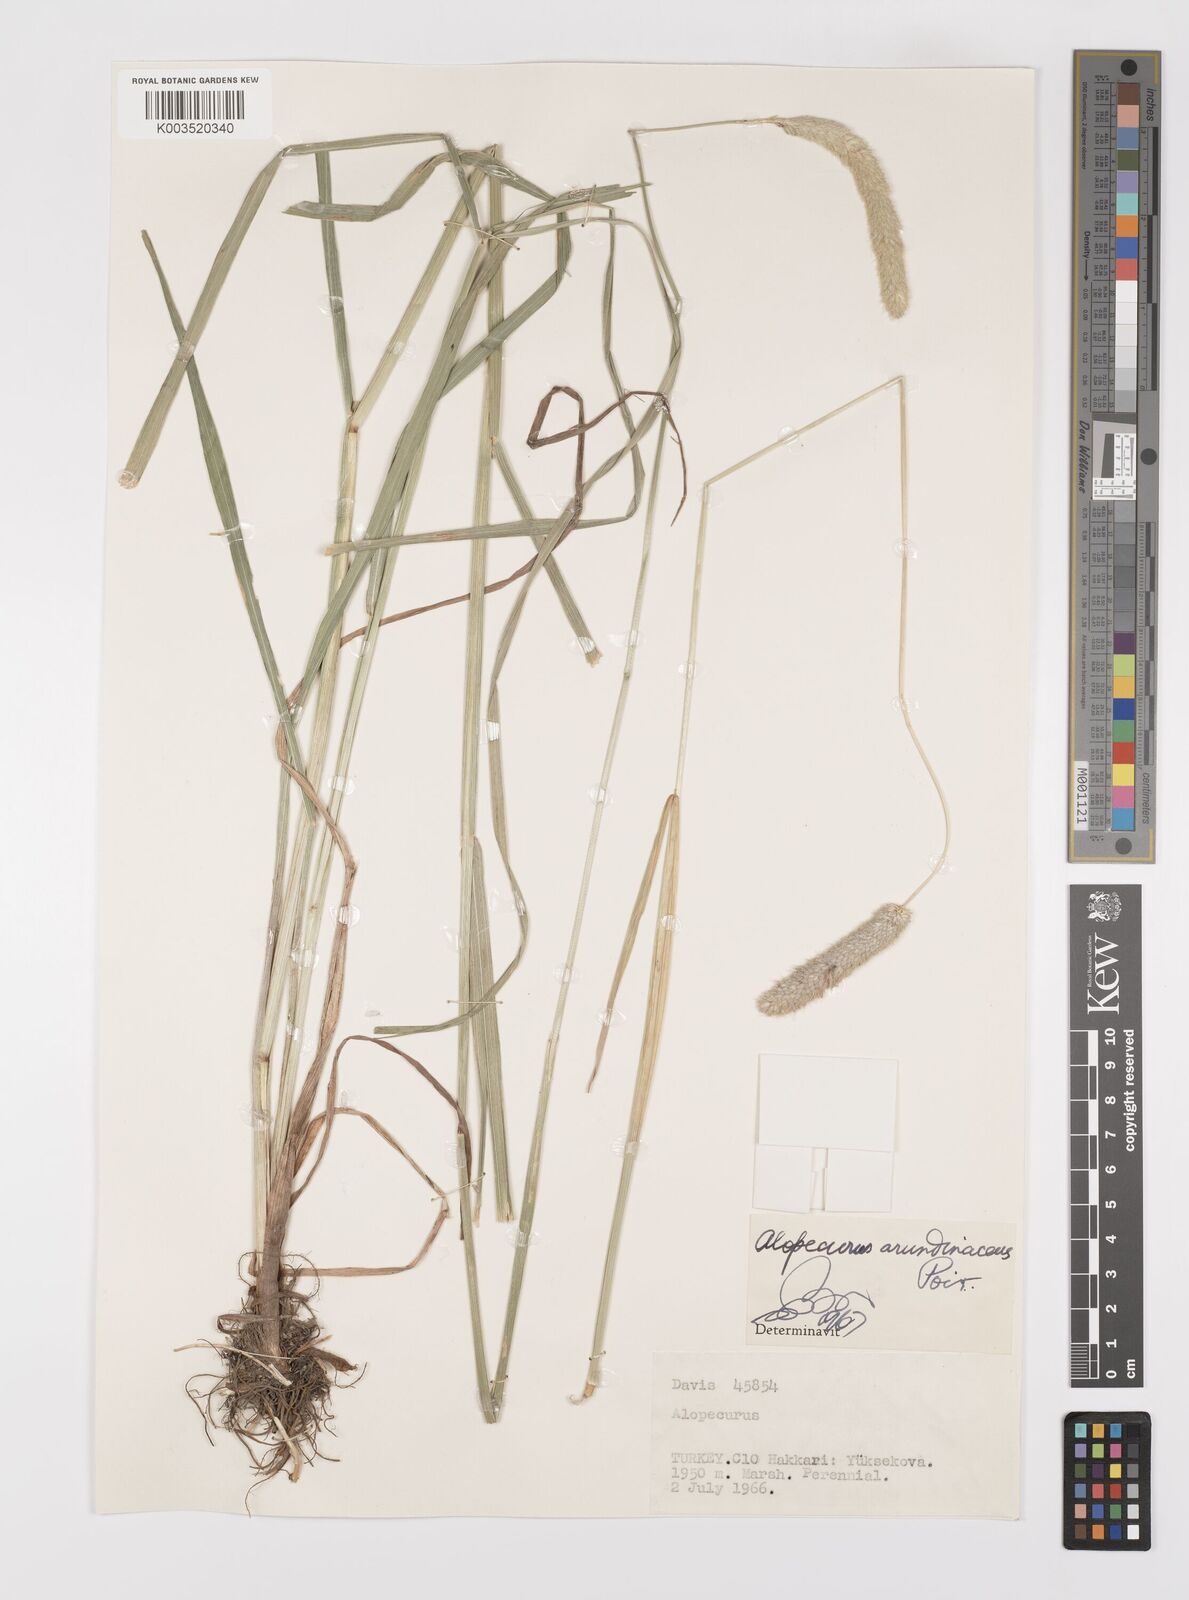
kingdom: Plantae
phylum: Tracheophyta
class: Liliopsida
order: Poales
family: Poaceae
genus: Alopecurus
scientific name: Alopecurus arundinaceus
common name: Creeping meadow foxtail
